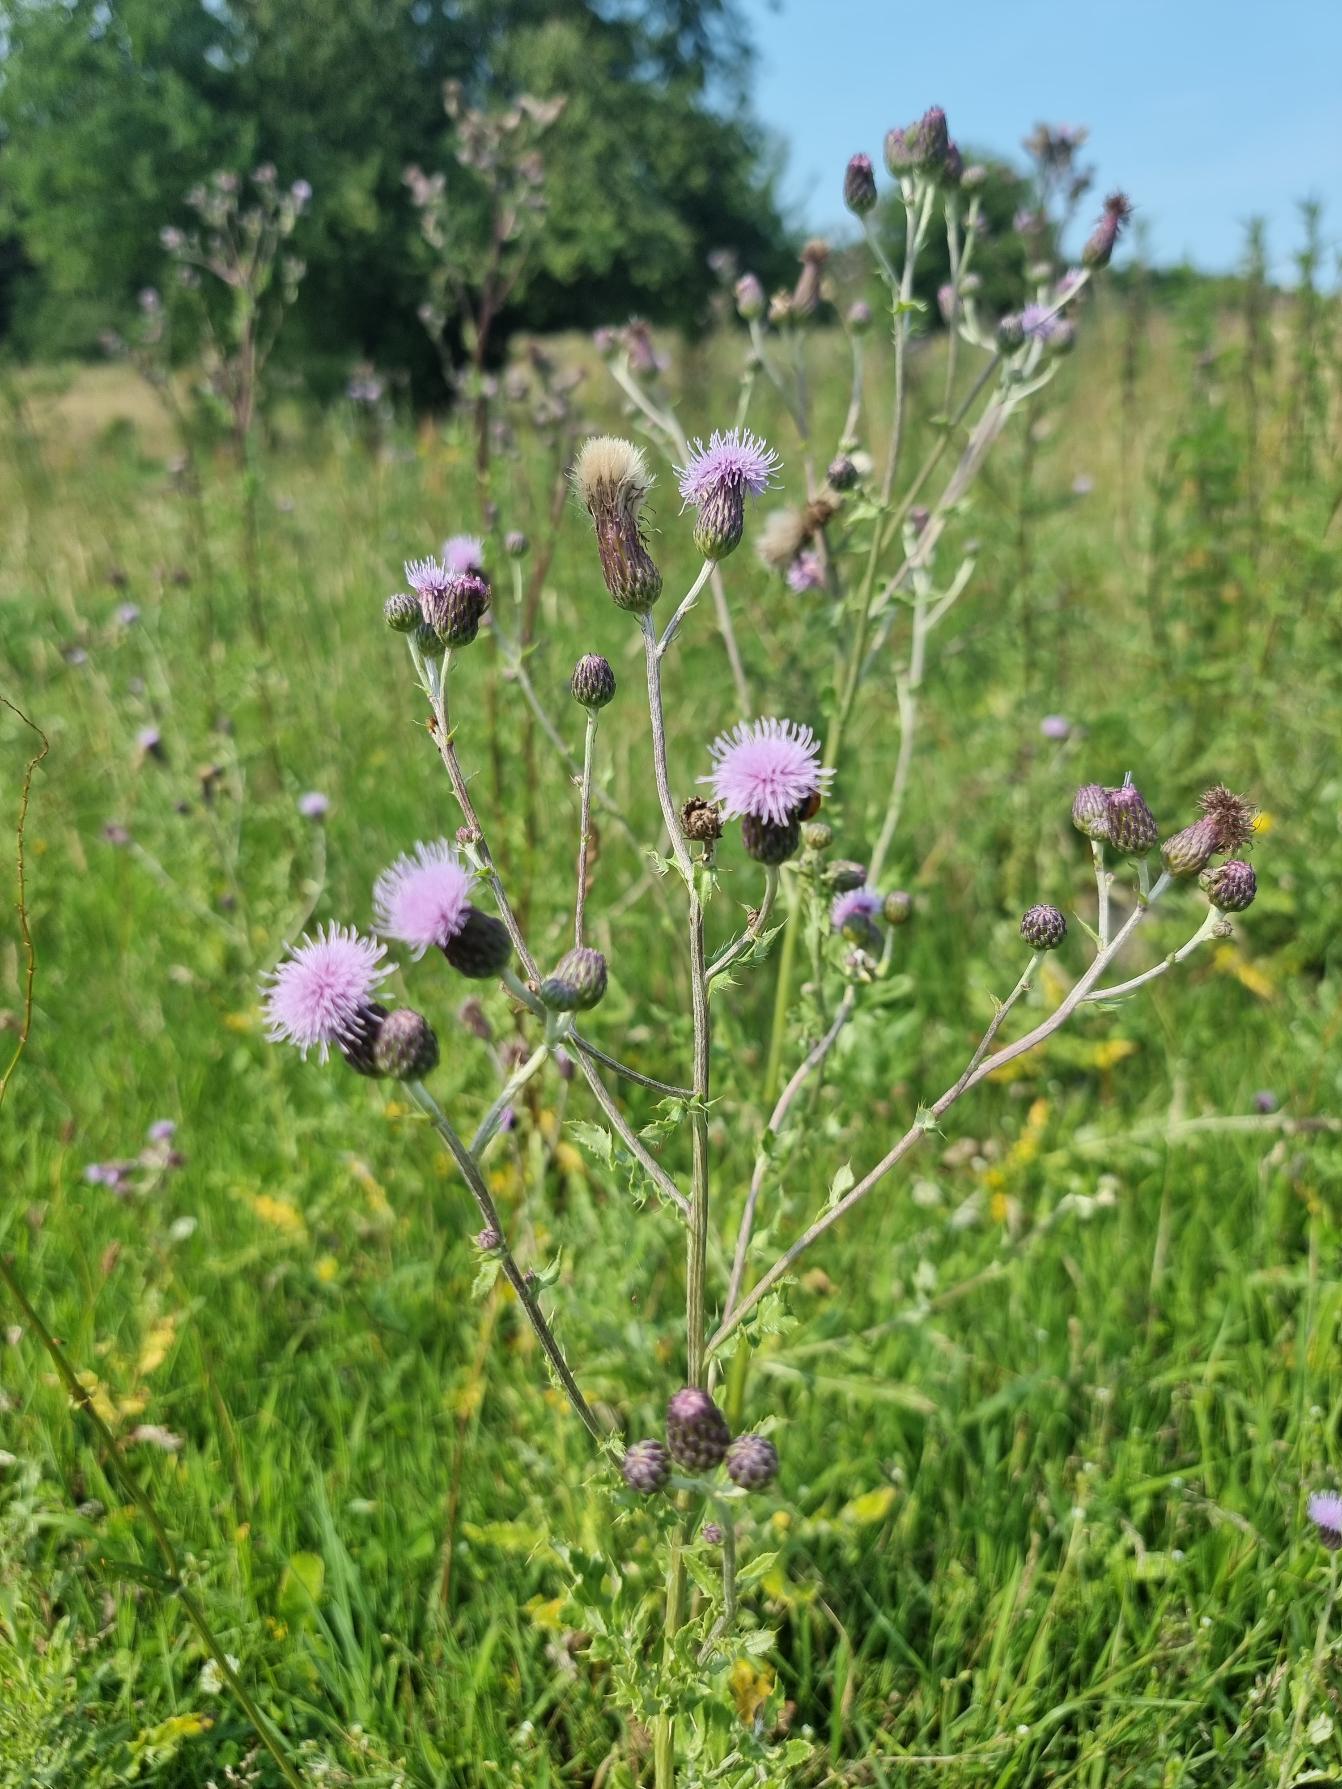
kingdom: Plantae
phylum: Tracheophyta
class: Magnoliopsida
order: Asterales
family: Asteraceae
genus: Cirsium
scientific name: Cirsium arvense
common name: Ager-tidsel
